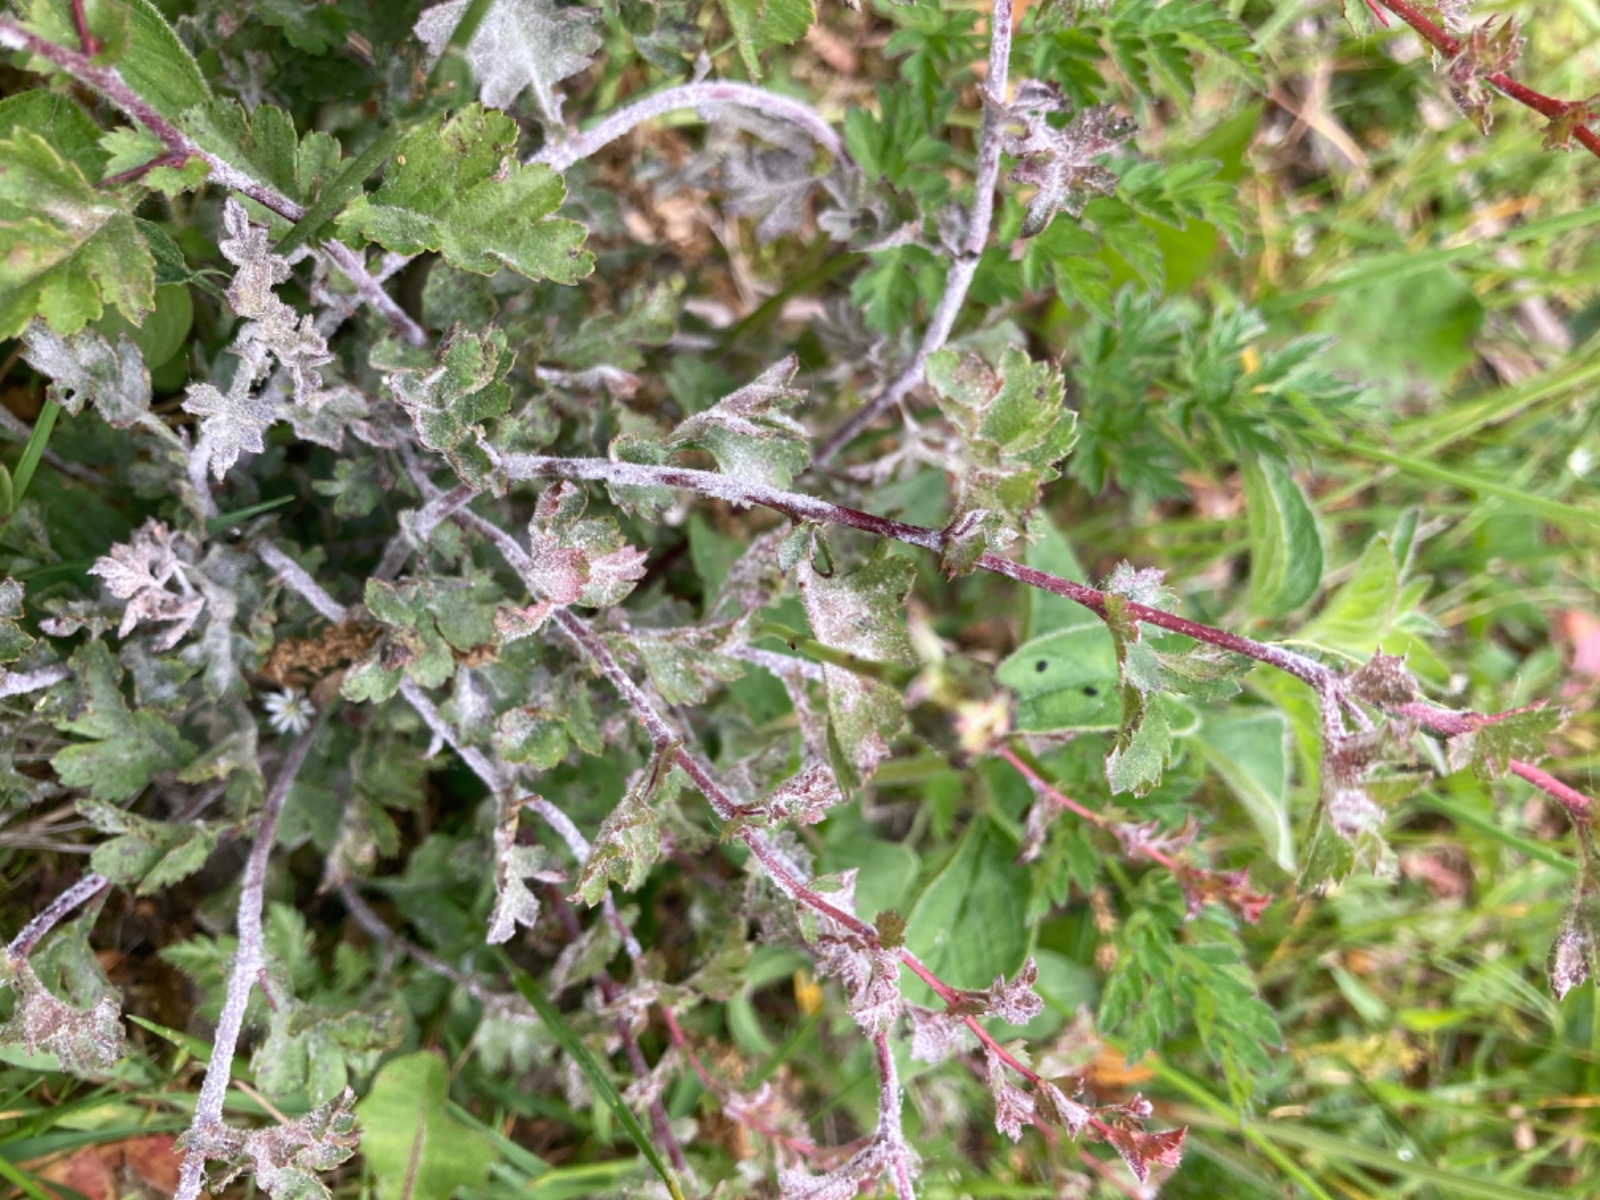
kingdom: Fungi
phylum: Ascomycota
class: Leotiomycetes
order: Helotiales
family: Erysiphaceae
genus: Podosphaera
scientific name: Podosphaera clandestina
